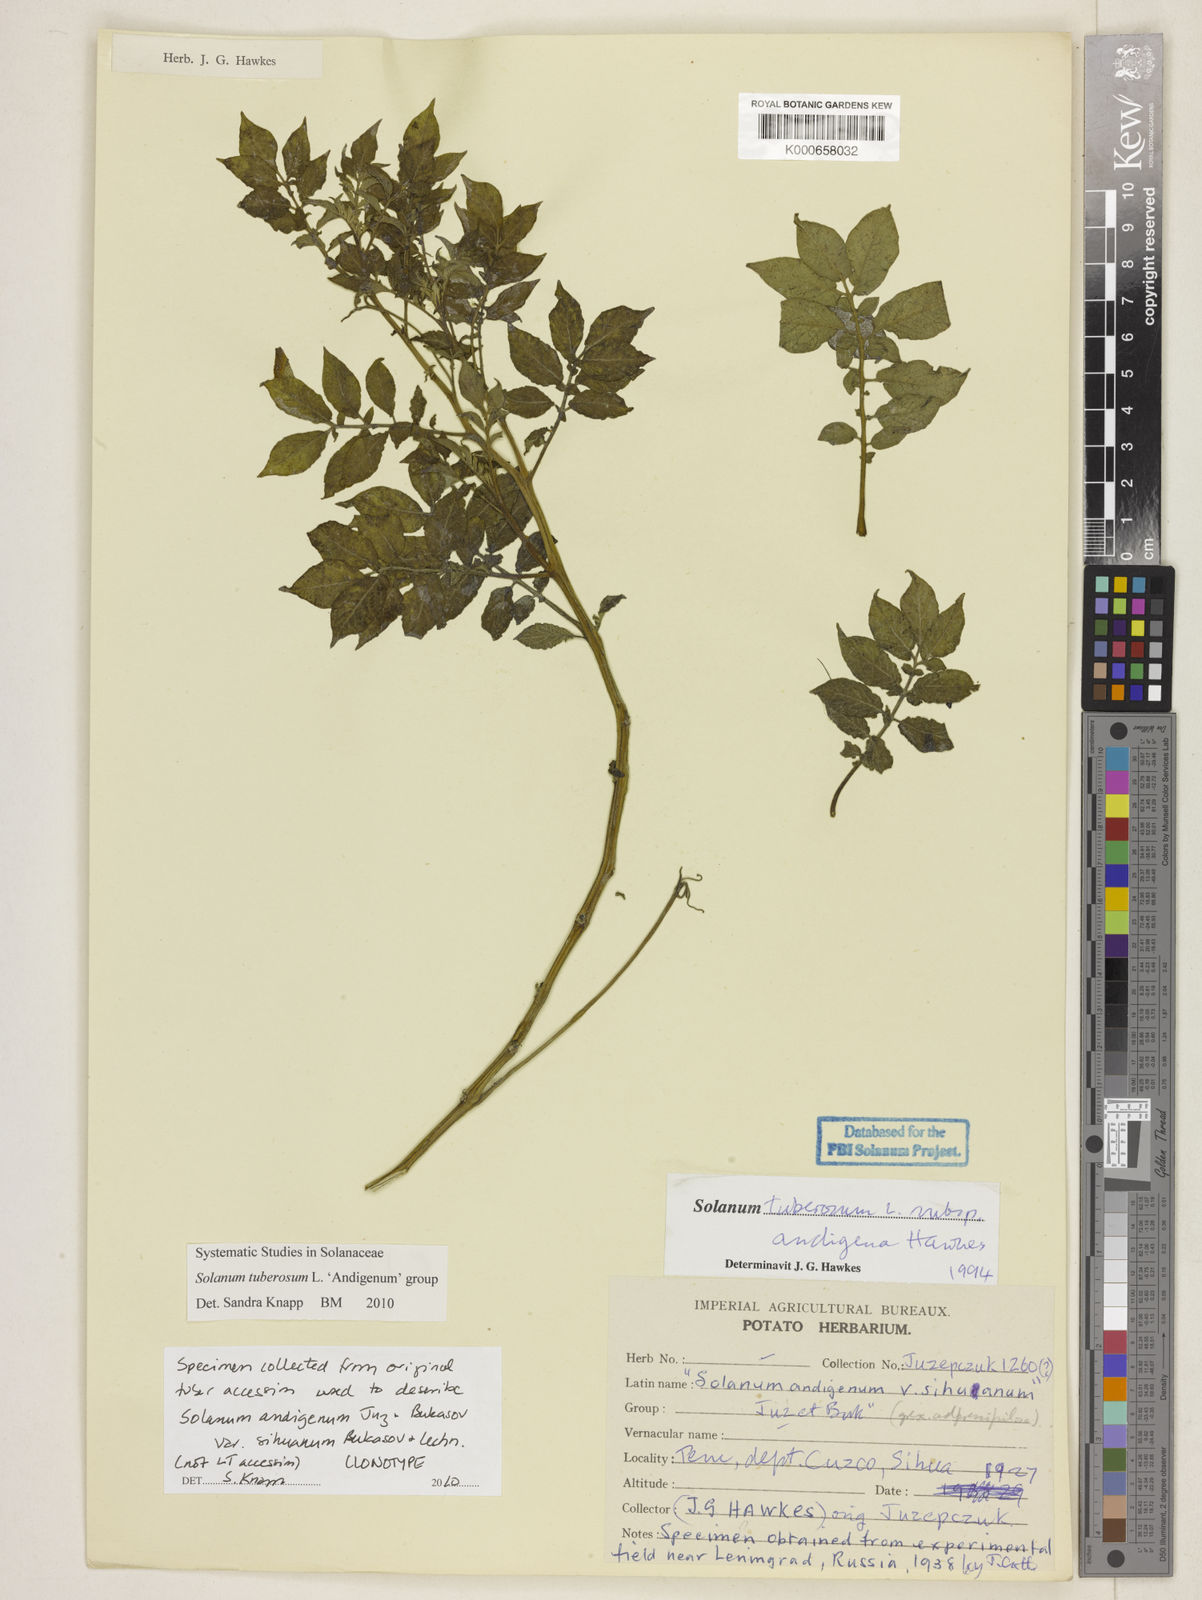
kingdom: Plantae
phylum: Tracheophyta
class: Magnoliopsida
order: Solanales
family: Solanaceae
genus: Solanum
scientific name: Solanum tuberosum
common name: Potato
